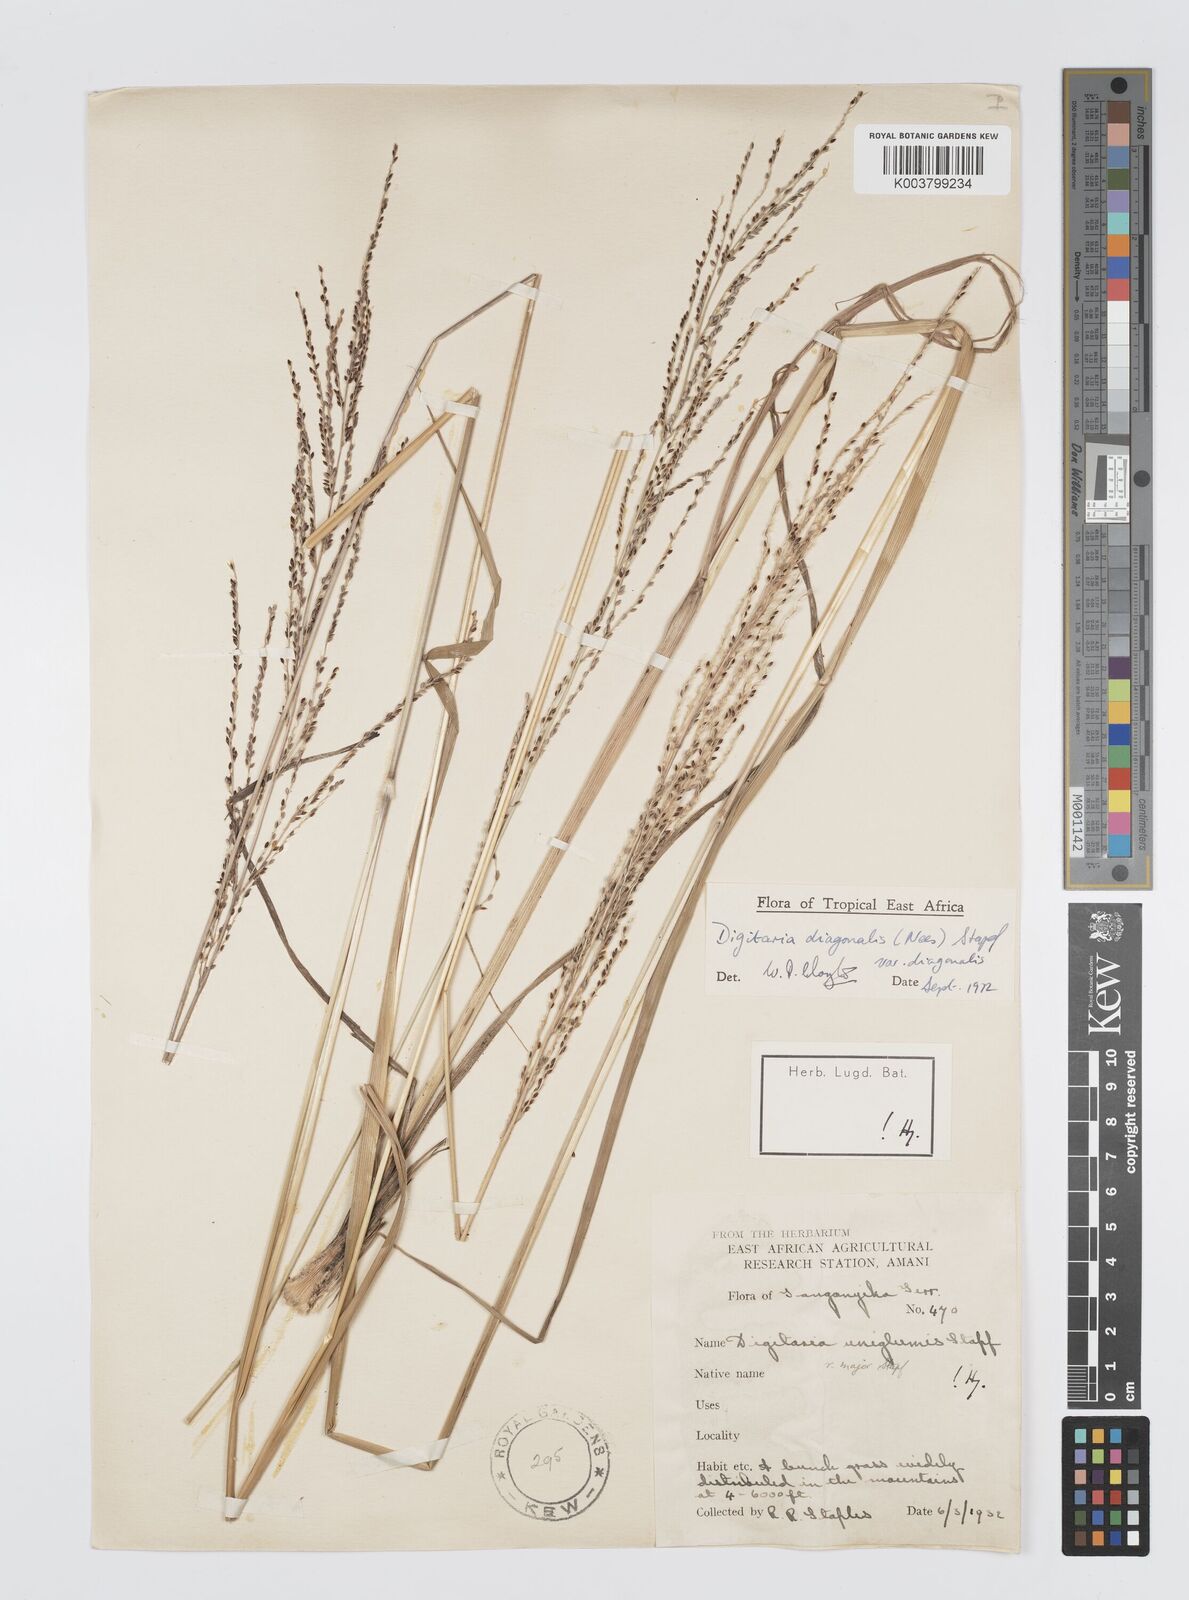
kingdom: Plantae
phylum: Tracheophyta
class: Liliopsida
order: Poales
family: Poaceae
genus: Digitaria
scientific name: Digitaria diagonalis
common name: Brown-seed finger grass
